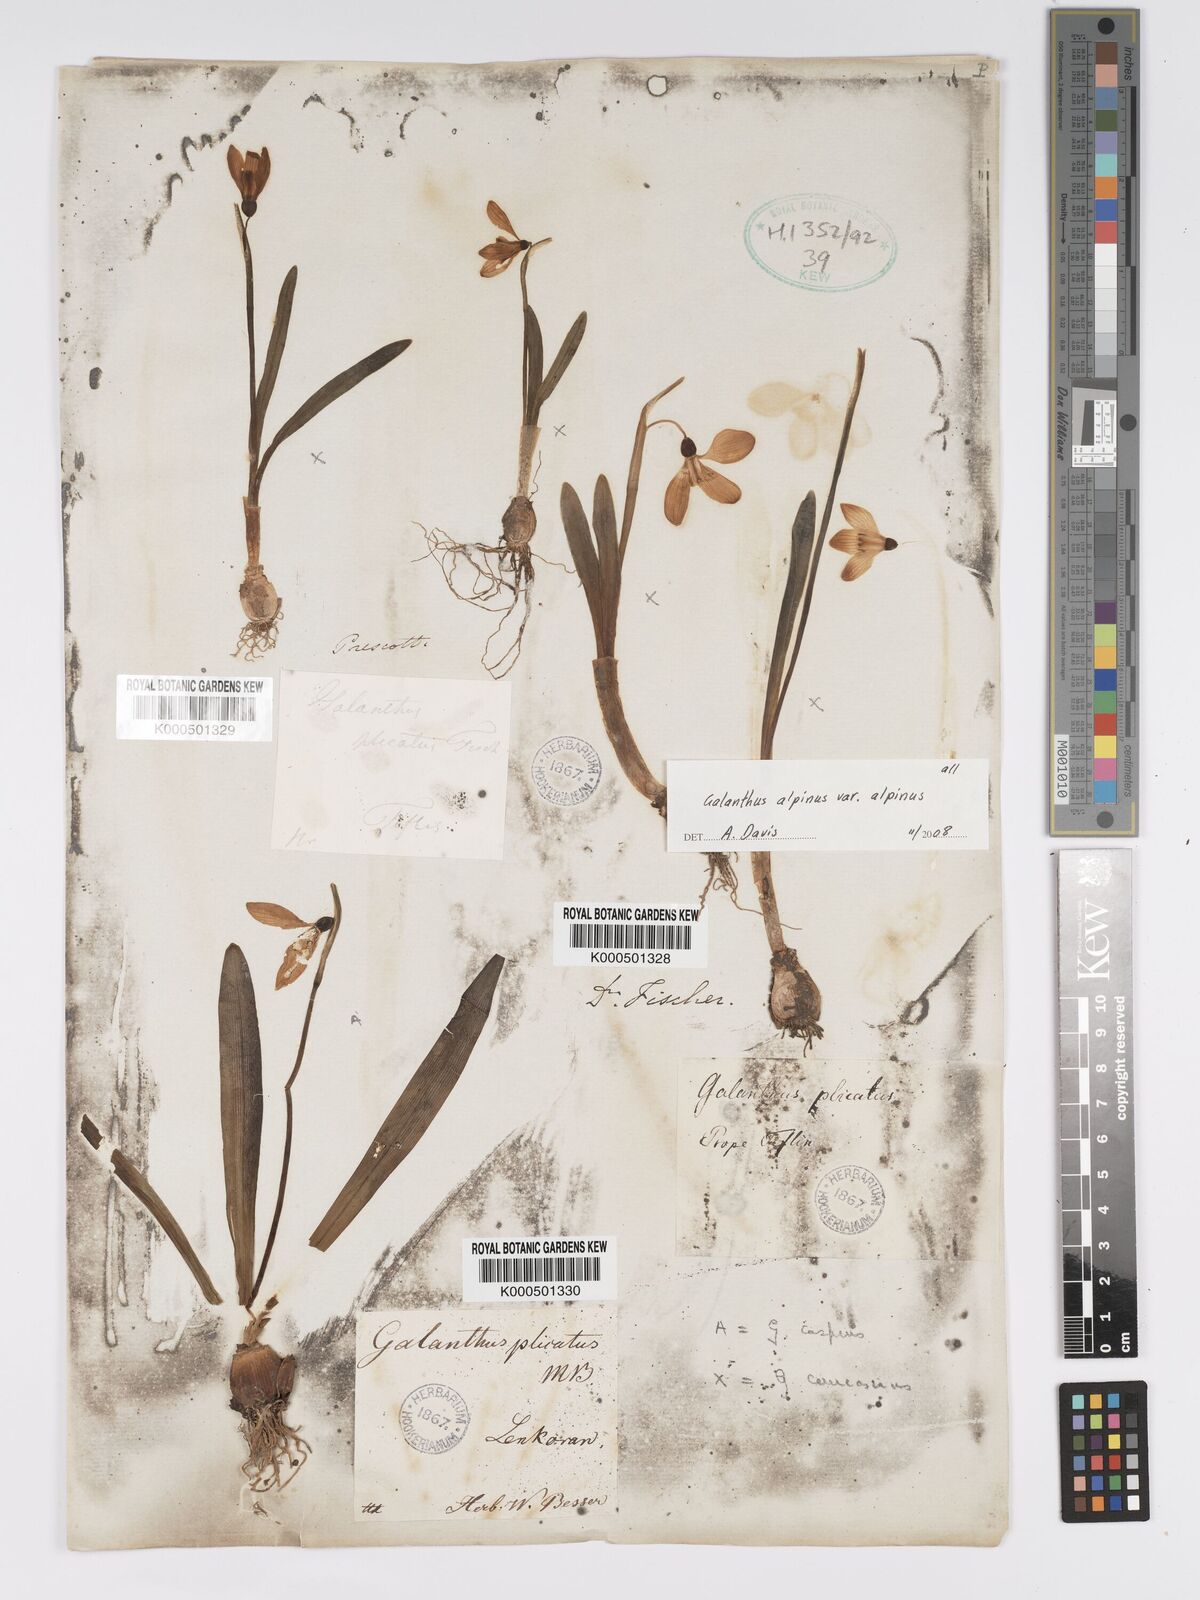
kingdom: Plantae
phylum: Tracheophyta
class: Liliopsida
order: Asparagales
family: Amaryllidaceae
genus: Galanthus
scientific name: Galanthus alpinus
